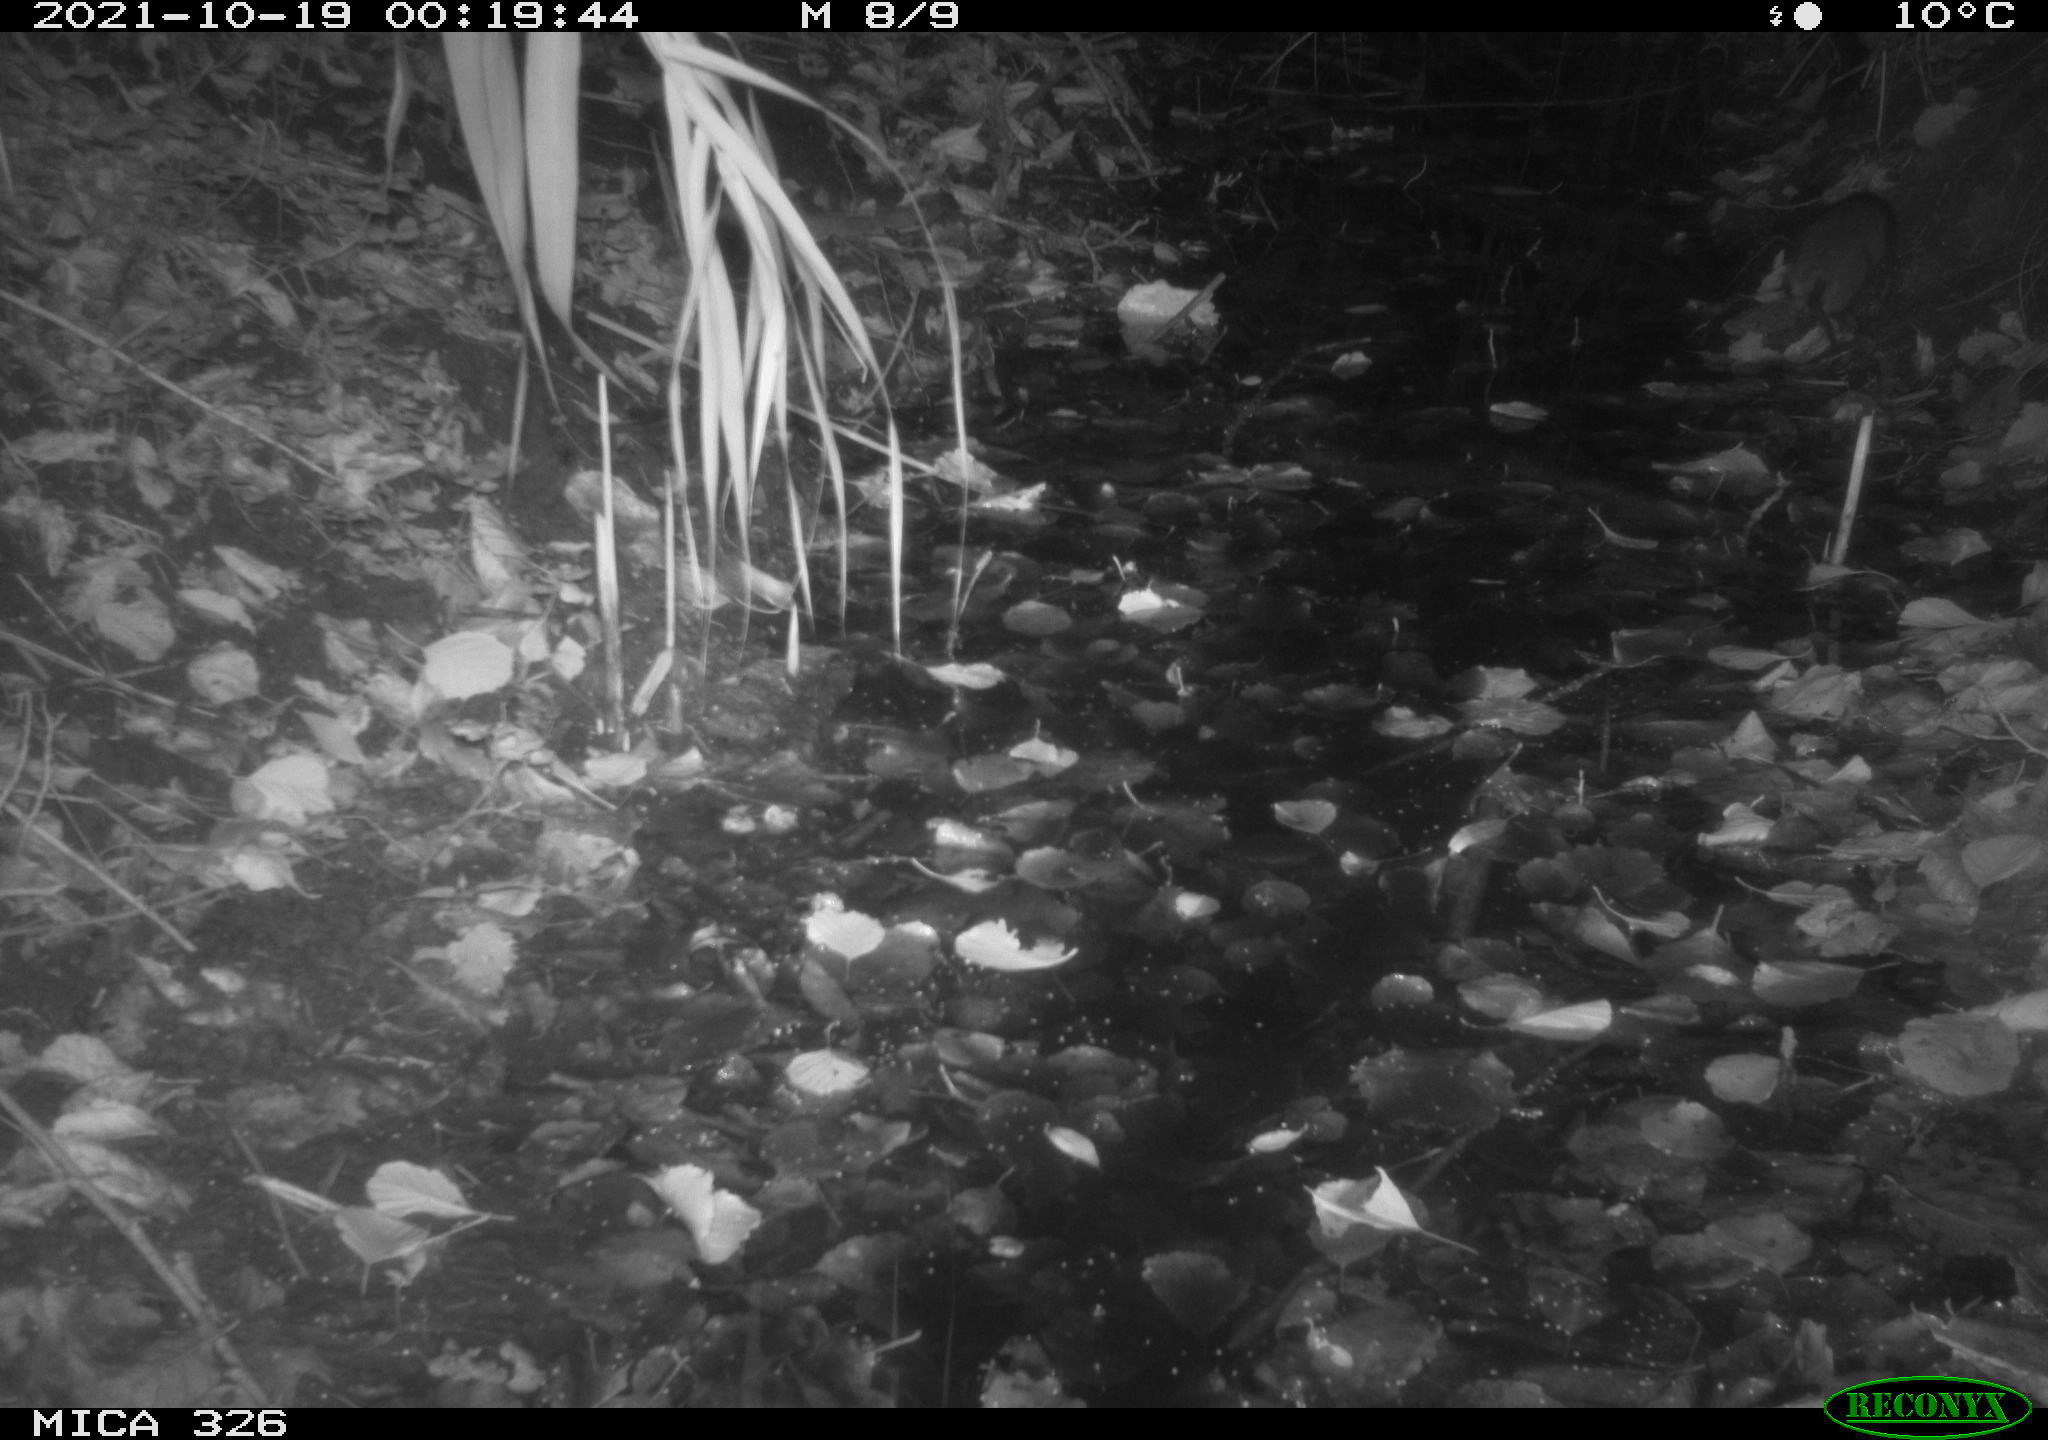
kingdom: Animalia
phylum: Chordata
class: Mammalia
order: Rodentia
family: Muridae
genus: Rattus
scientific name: Rattus norvegicus
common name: Brown rat
